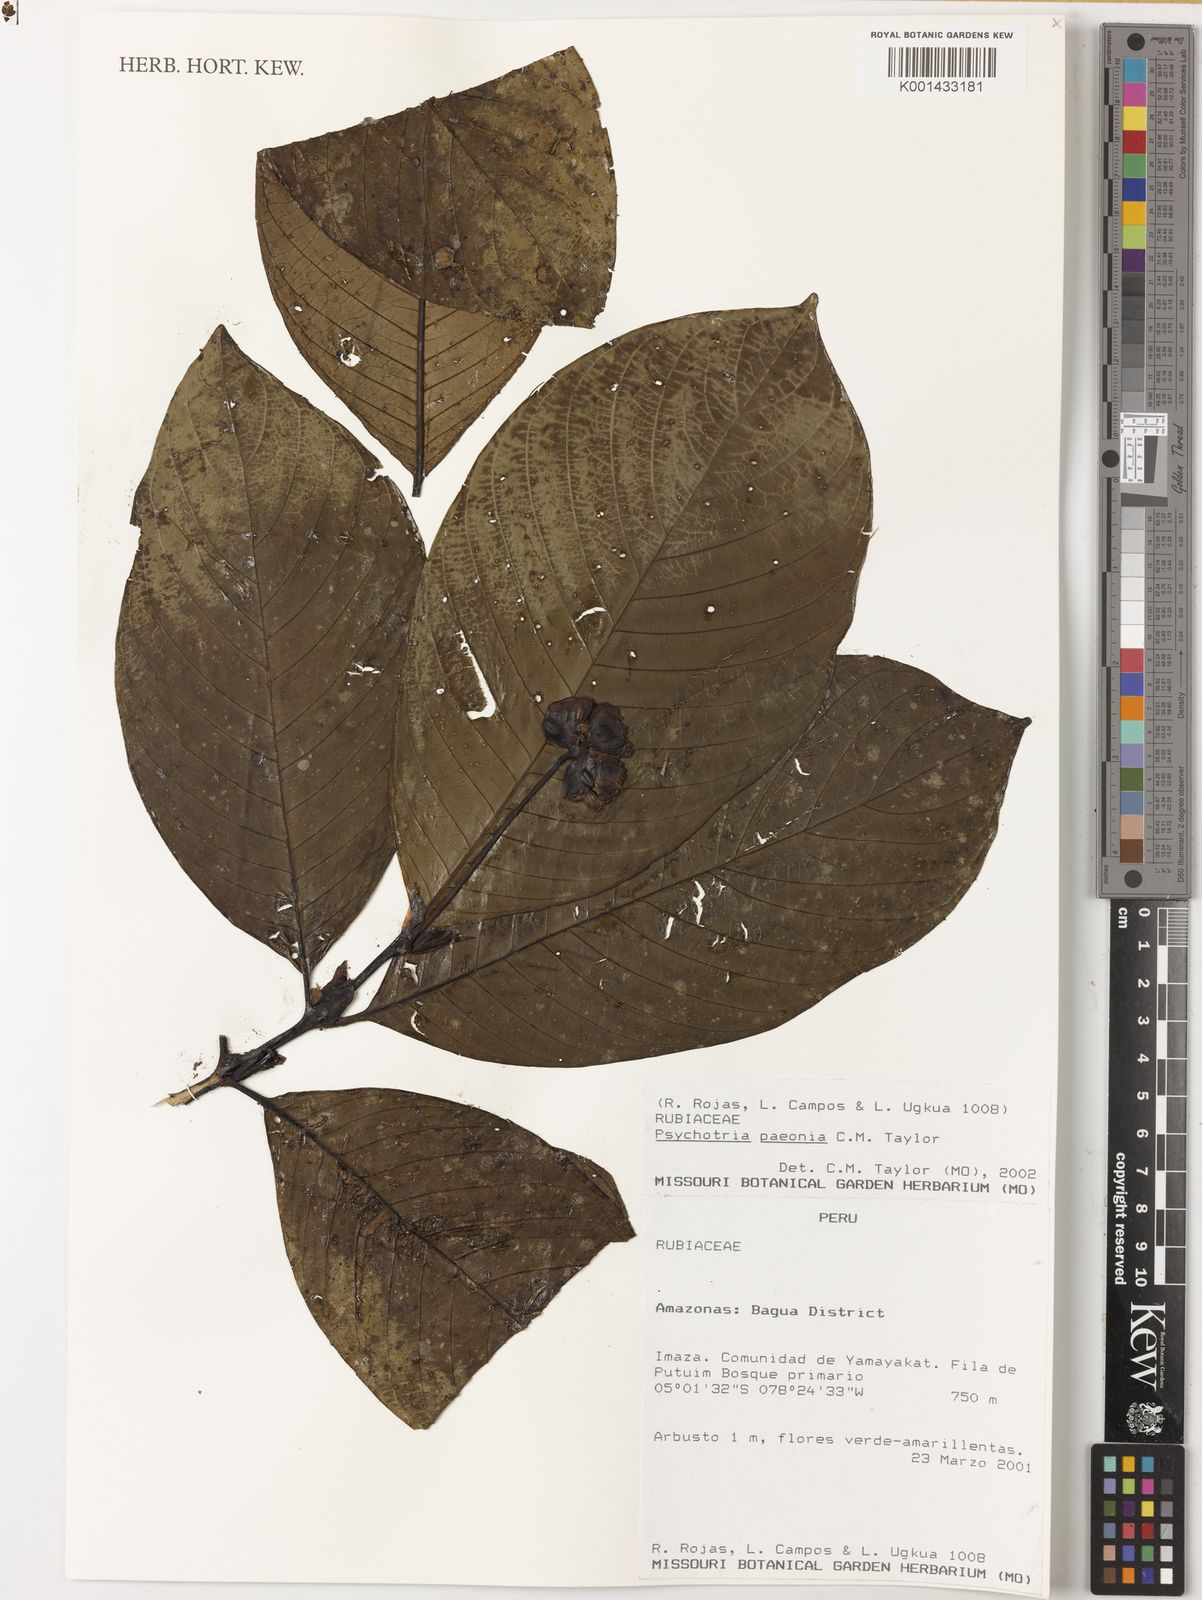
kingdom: Plantae
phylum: Tracheophyta
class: Magnoliopsida
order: Gentianales
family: Rubiaceae
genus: Psychotria
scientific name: Psychotria paeonia
